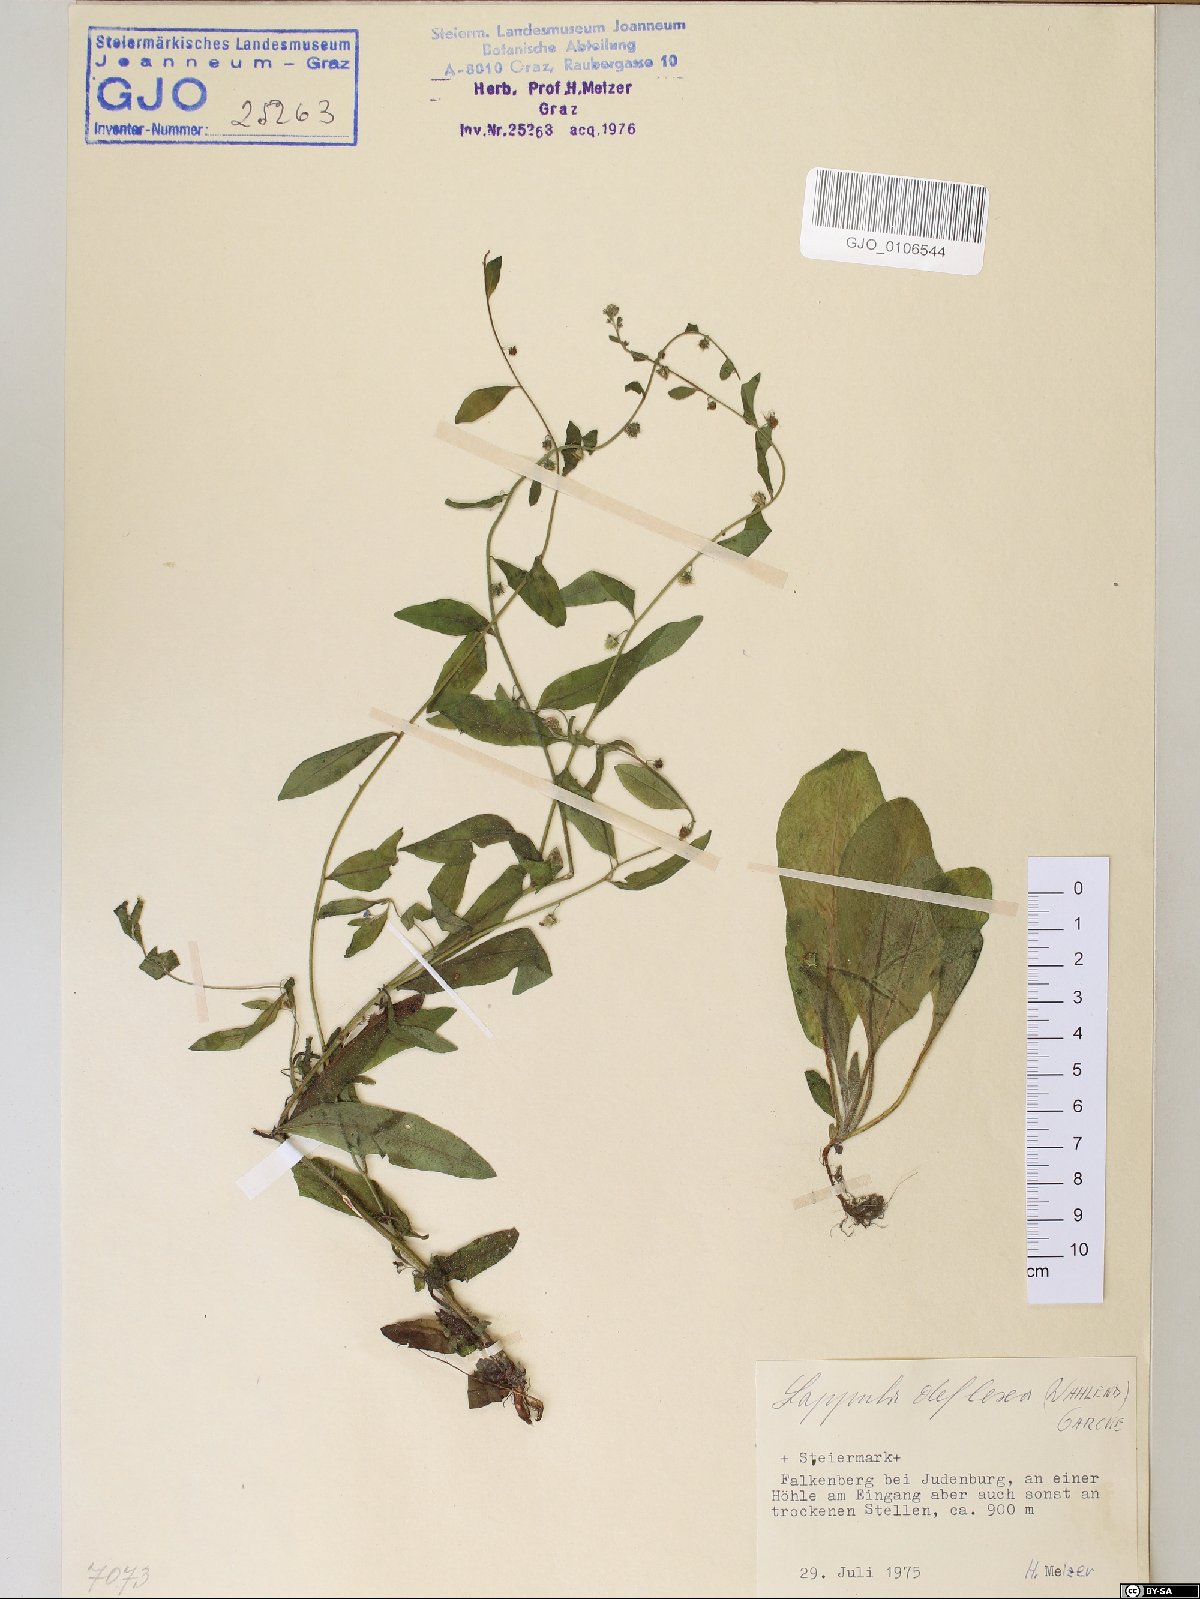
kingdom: Plantae
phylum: Tracheophyta
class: Magnoliopsida
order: Boraginales
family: Boraginaceae
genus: Hackelia
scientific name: Hackelia deflexa
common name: Nodding stickseed
